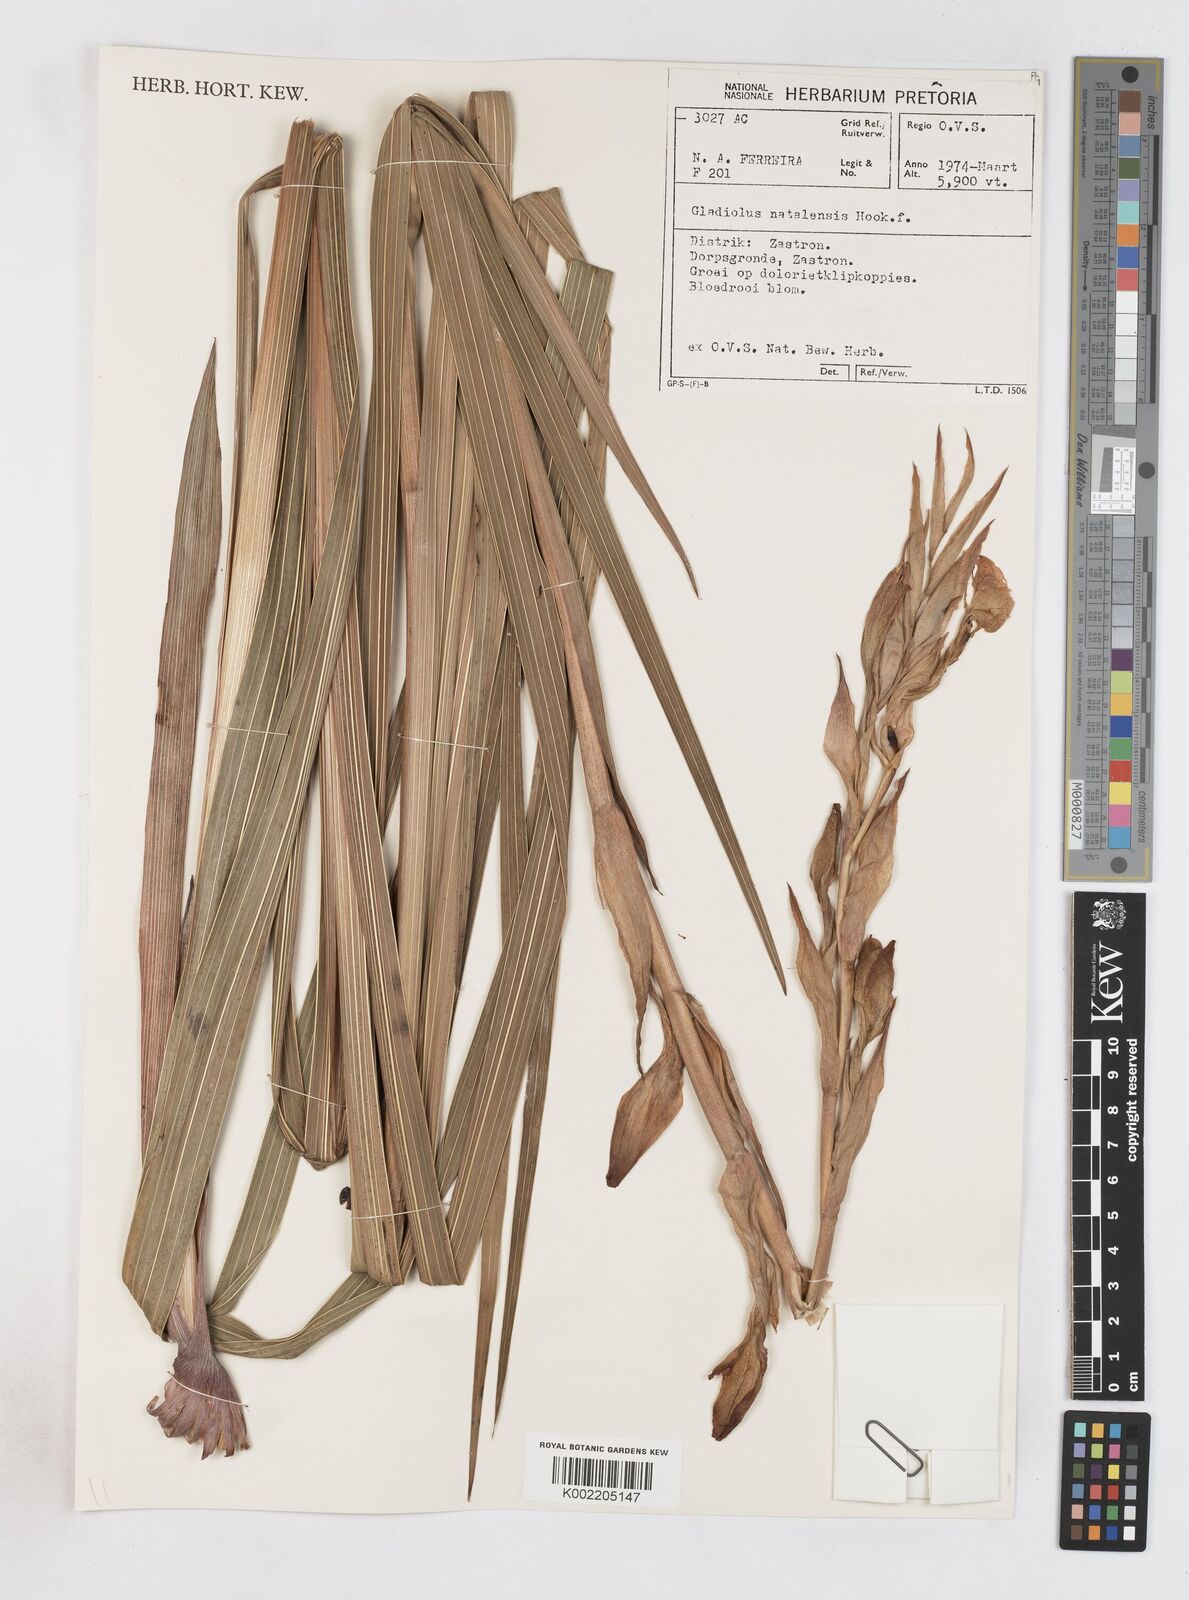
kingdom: Plantae
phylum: Tracheophyta
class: Liliopsida
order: Asparagales
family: Iridaceae
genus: Gladiolus
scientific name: Gladiolus dalenii
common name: Cornflag
